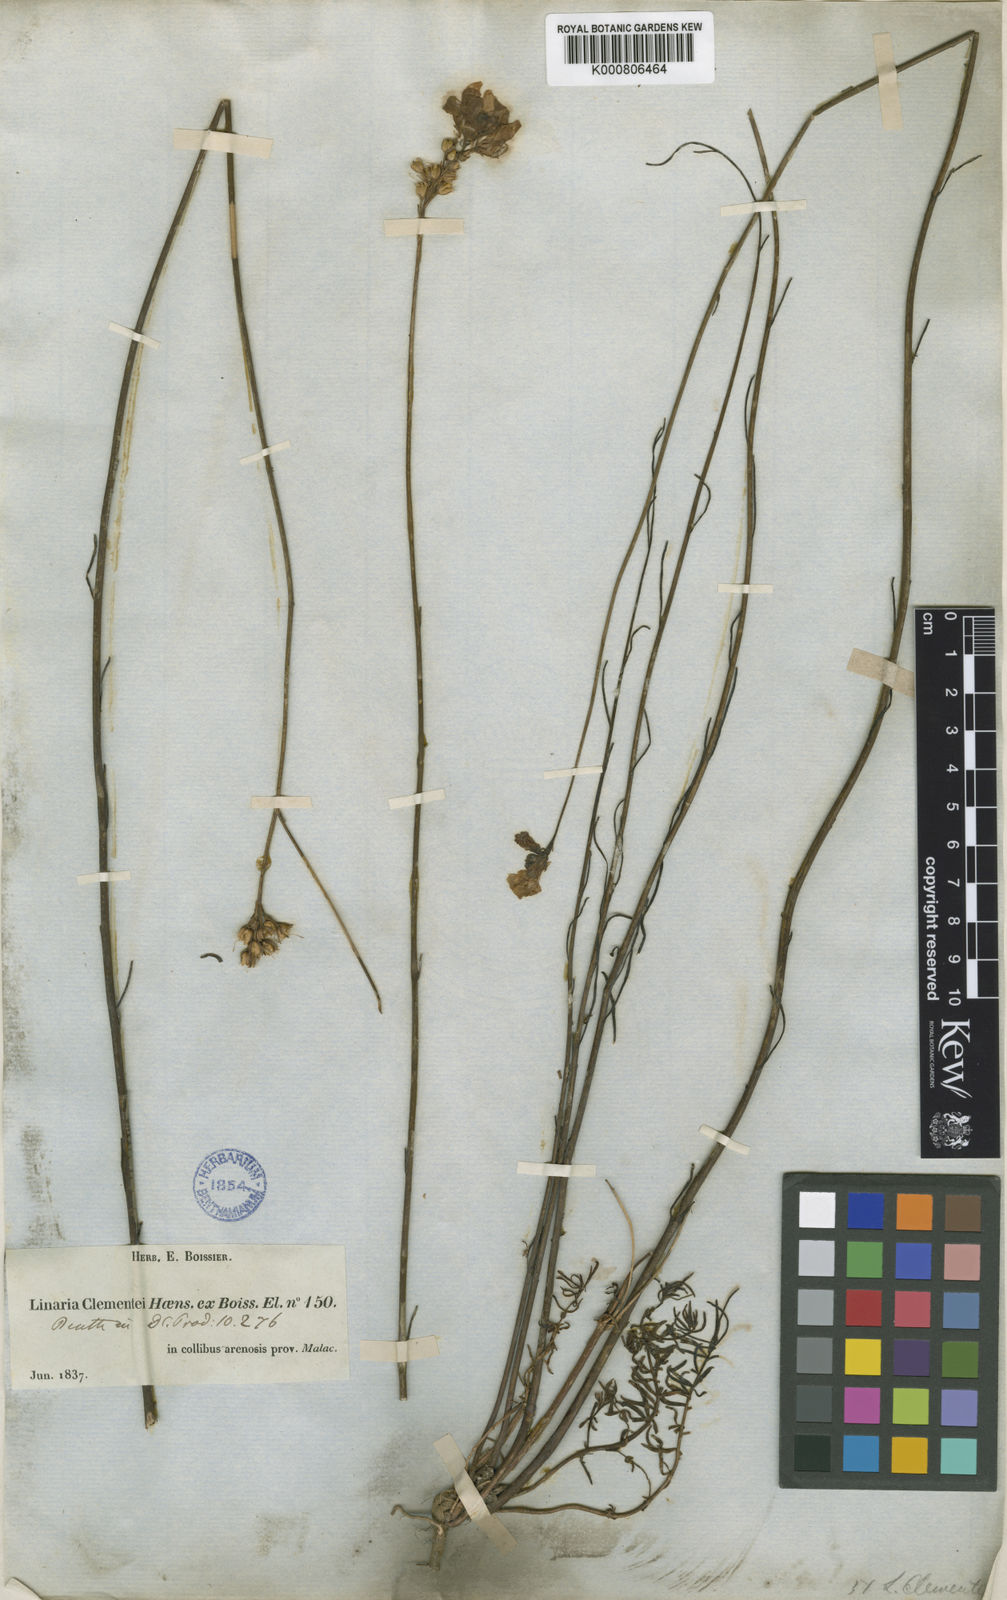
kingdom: Plantae
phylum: Tracheophyta
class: Magnoliopsida
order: Lamiales
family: Plantaginaceae
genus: Linaria
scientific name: Linaria clementei
